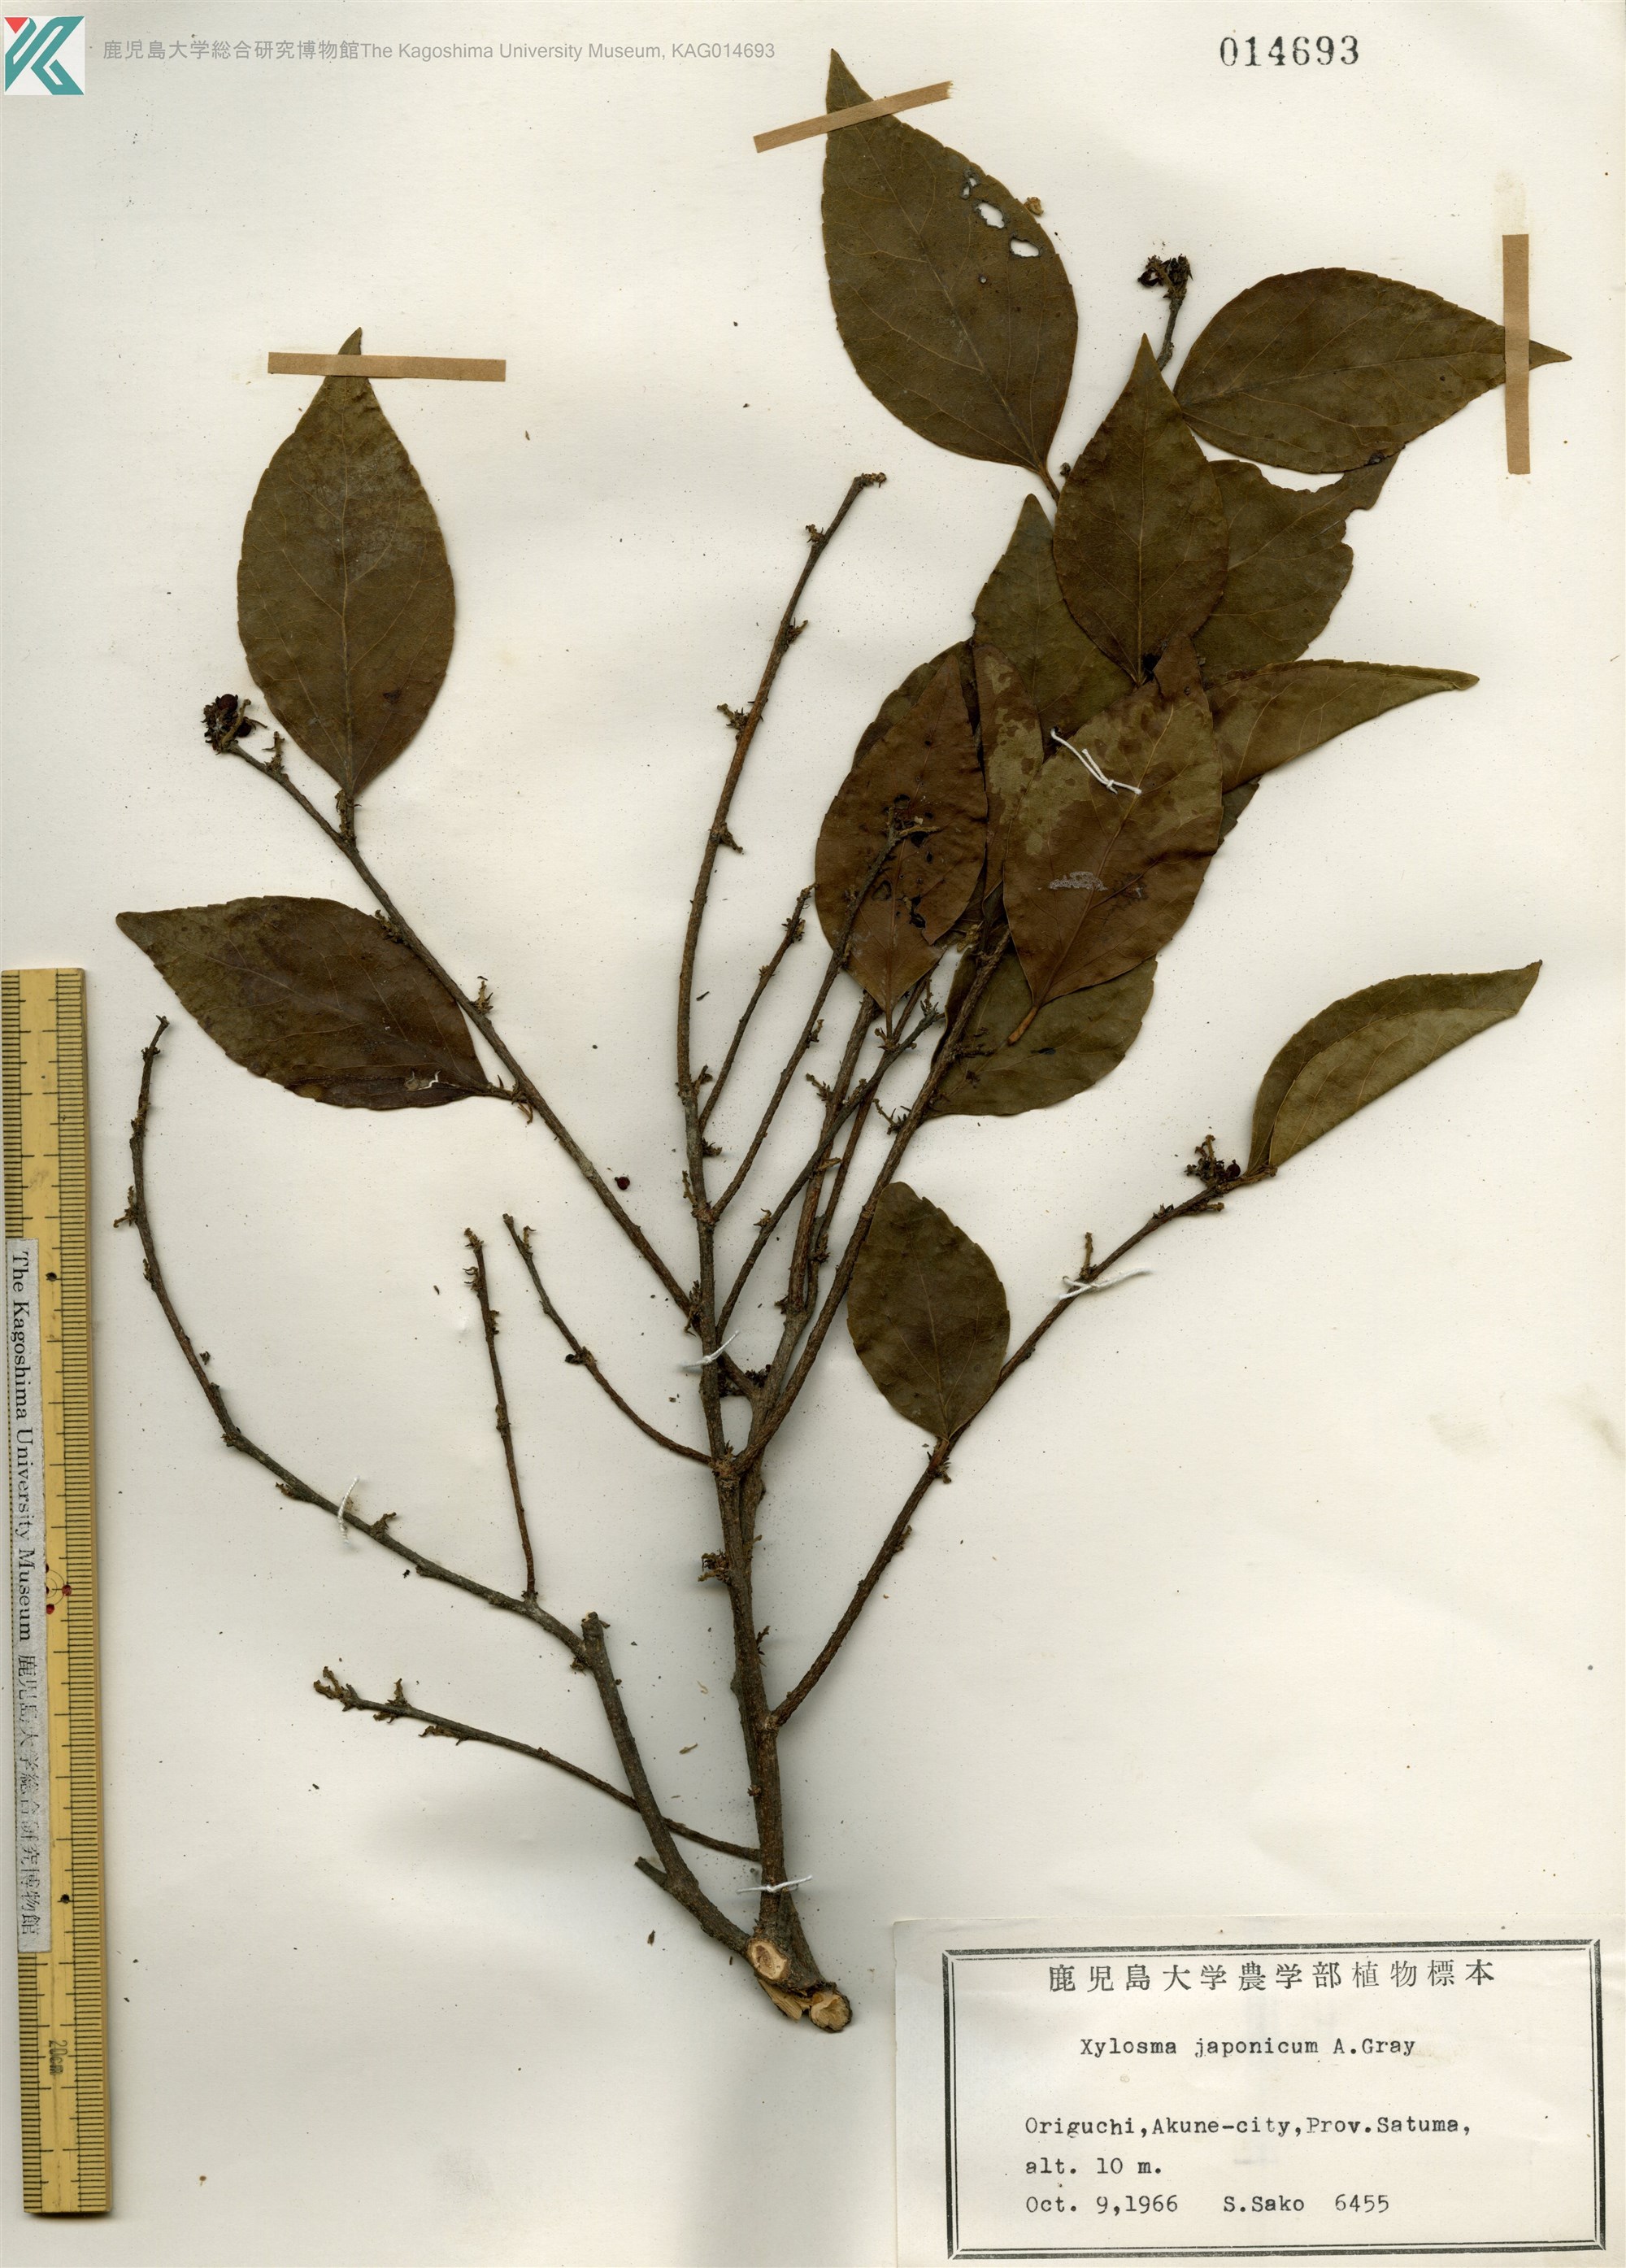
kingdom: Plantae
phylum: Tracheophyta
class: Magnoliopsida
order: Malpighiales
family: Salicaceae
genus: Xylosma
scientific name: Xylosma racemosum
